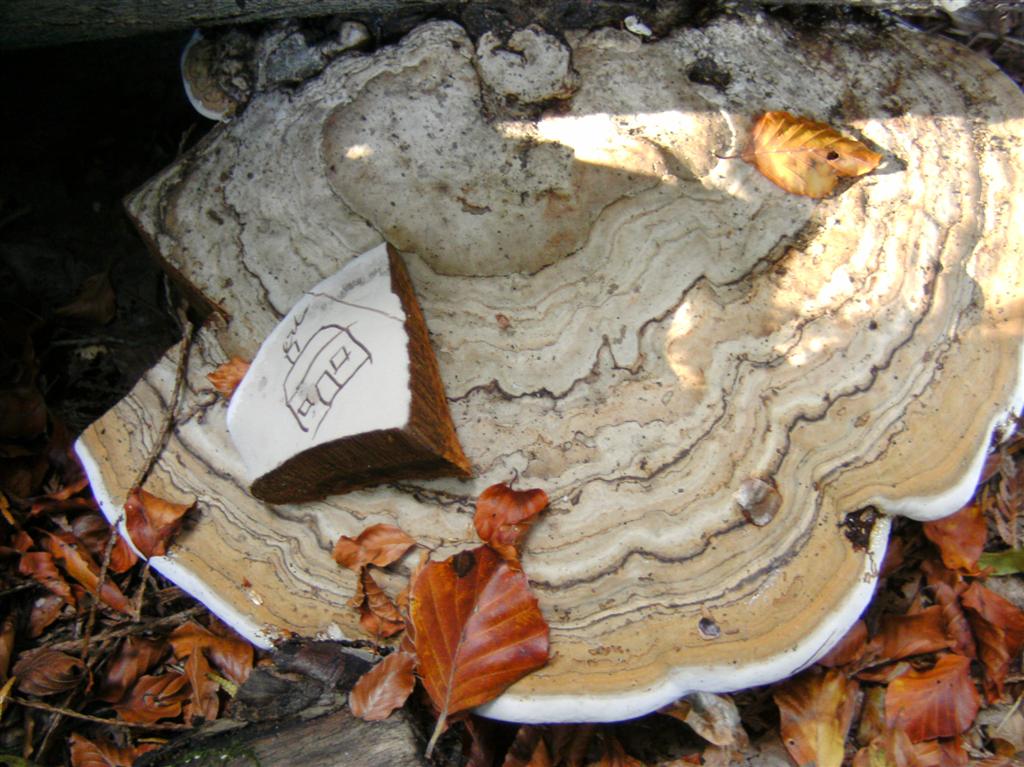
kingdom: Fungi
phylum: Basidiomycota
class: Agaricomycetes
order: Polyporales
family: Polyporaceae
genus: Fomes
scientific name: Fomes fomentarius
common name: tøndersvamp
